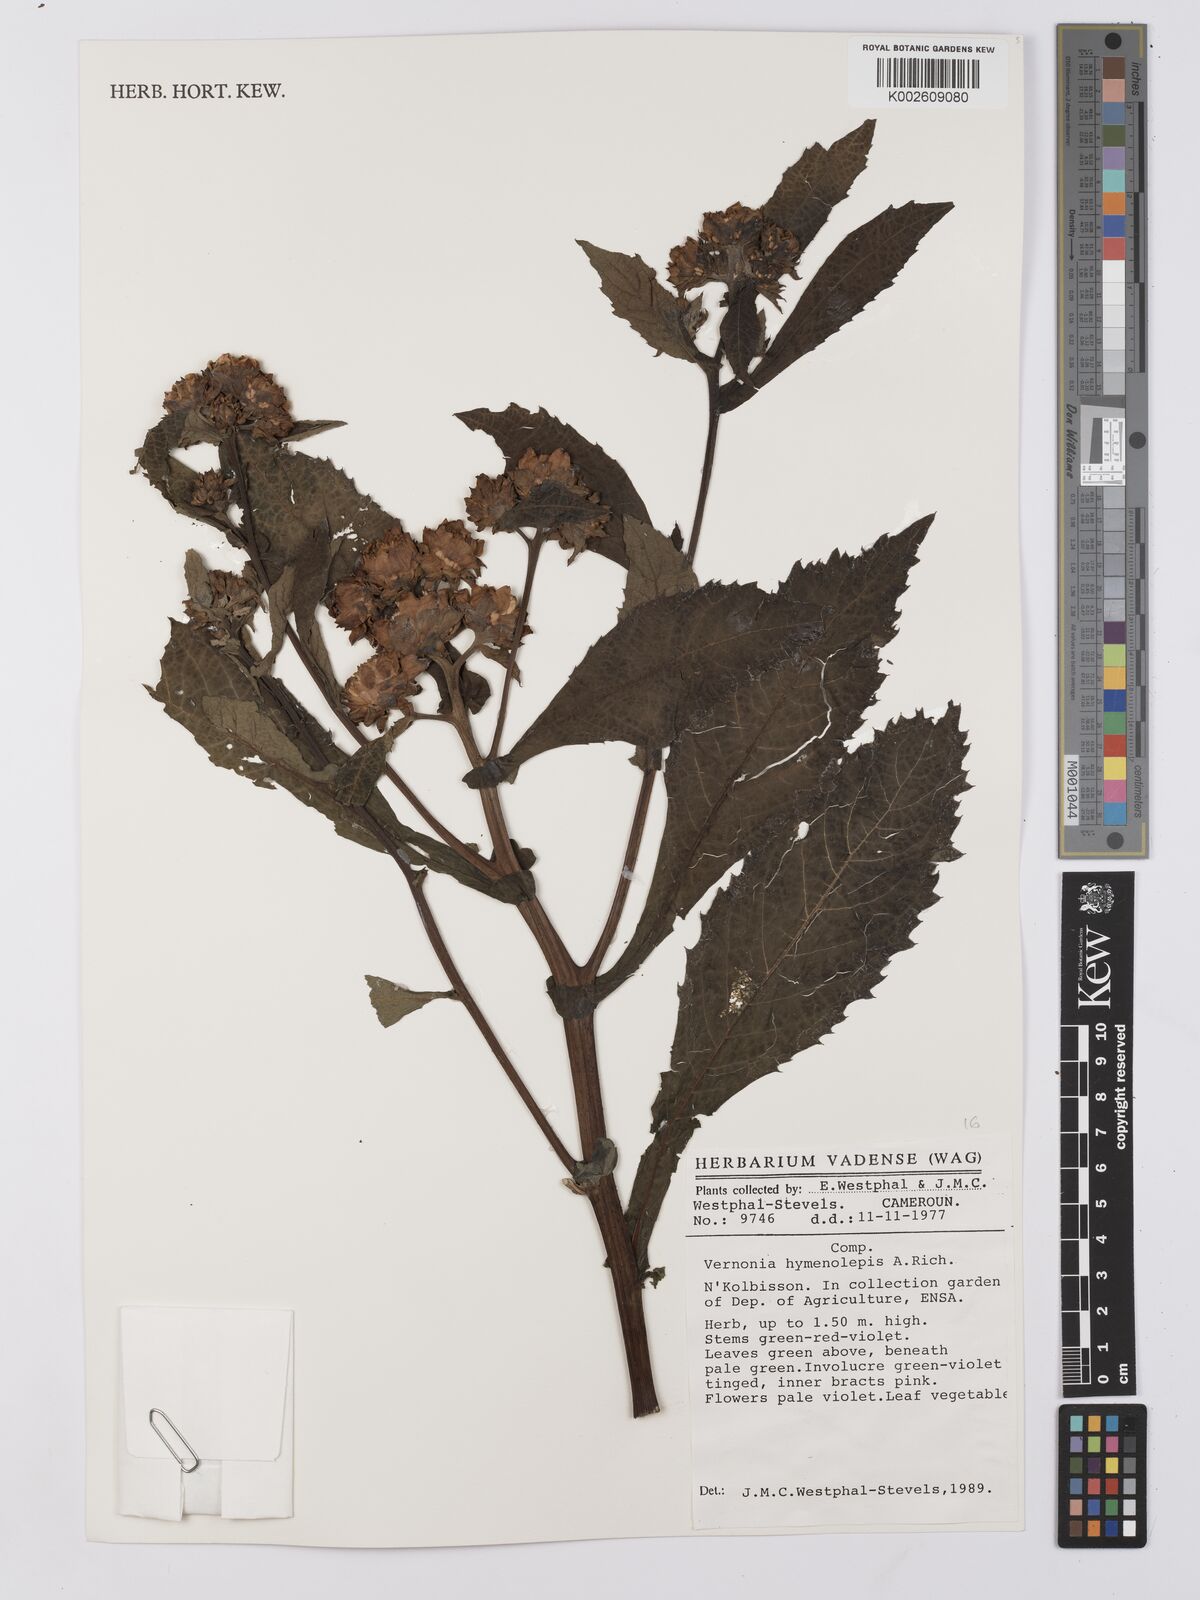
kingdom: Plantae
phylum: Tracheophyta
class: Magnoliopsida
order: Asterales
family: Asteraceae
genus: Baccharoides
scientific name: Baccharoides hymenolepis
